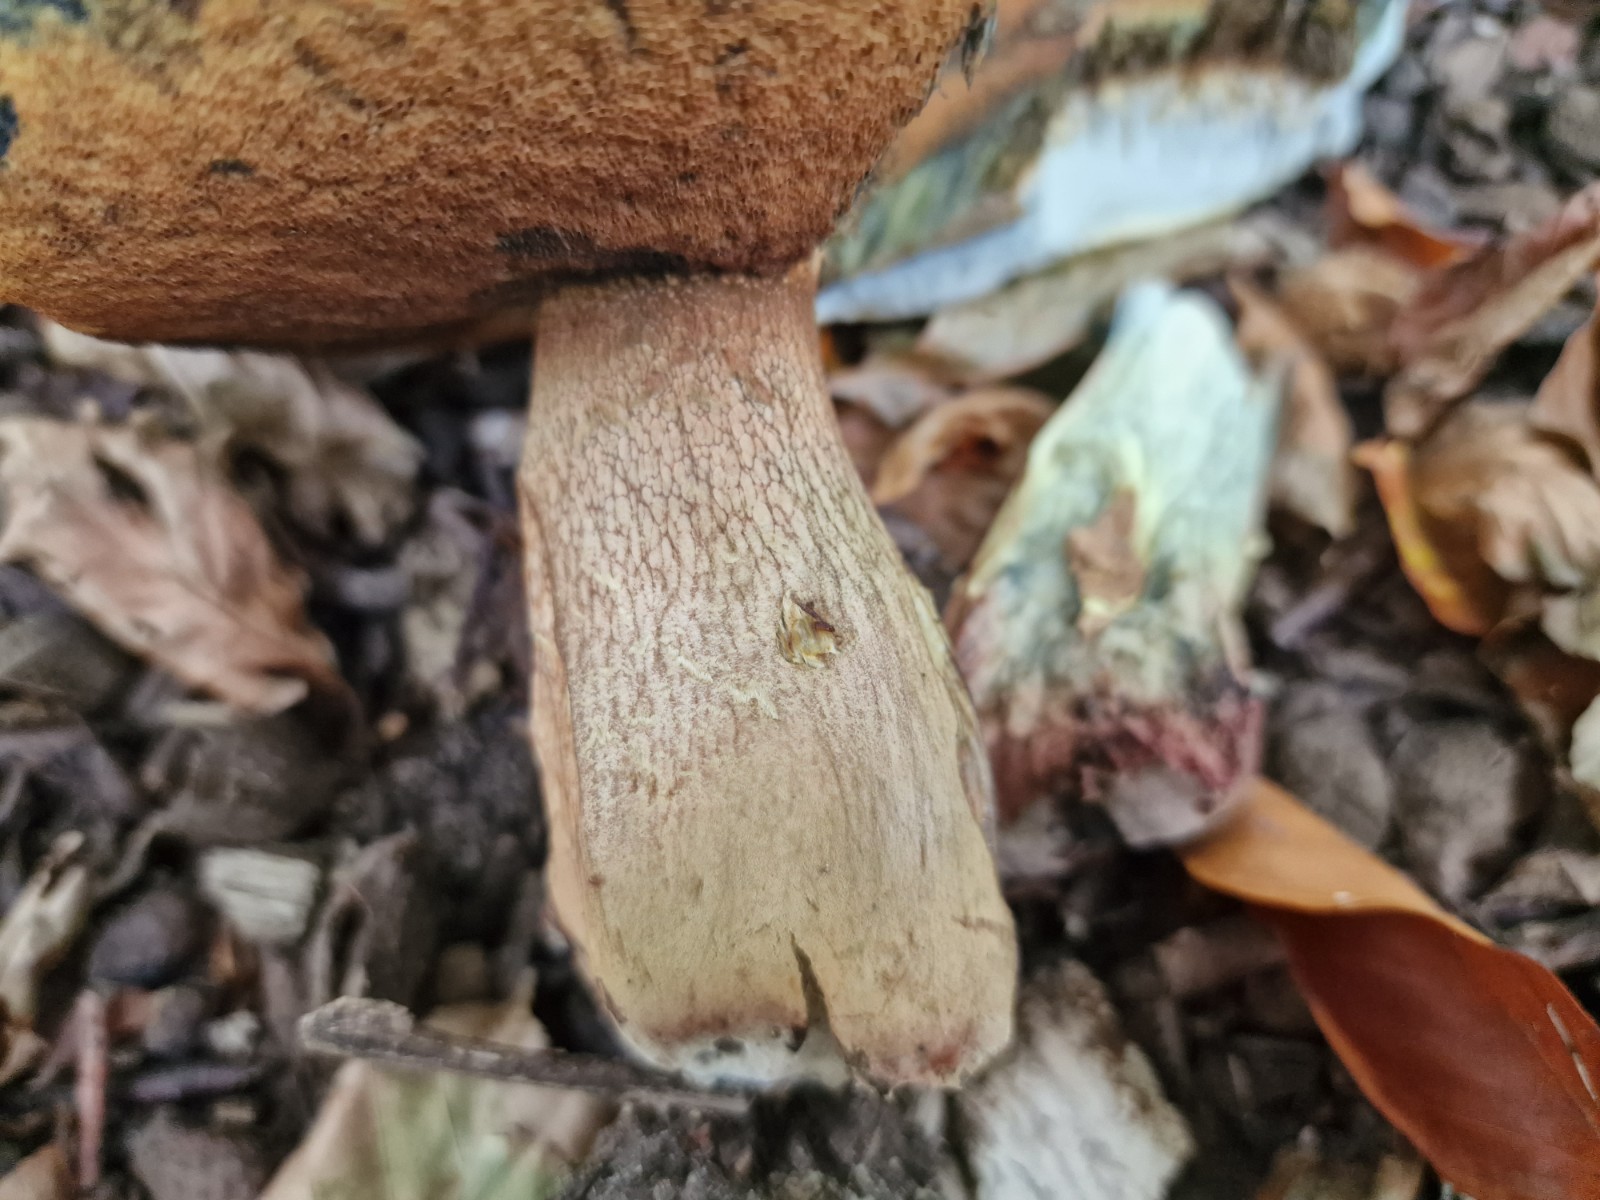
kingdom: Fungi
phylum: Basidiomycota
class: Agaricomycetes
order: Boletales
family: Boletaceae
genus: Suillellus
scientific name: Suillellus luridus
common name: netstokket indigorørhat
